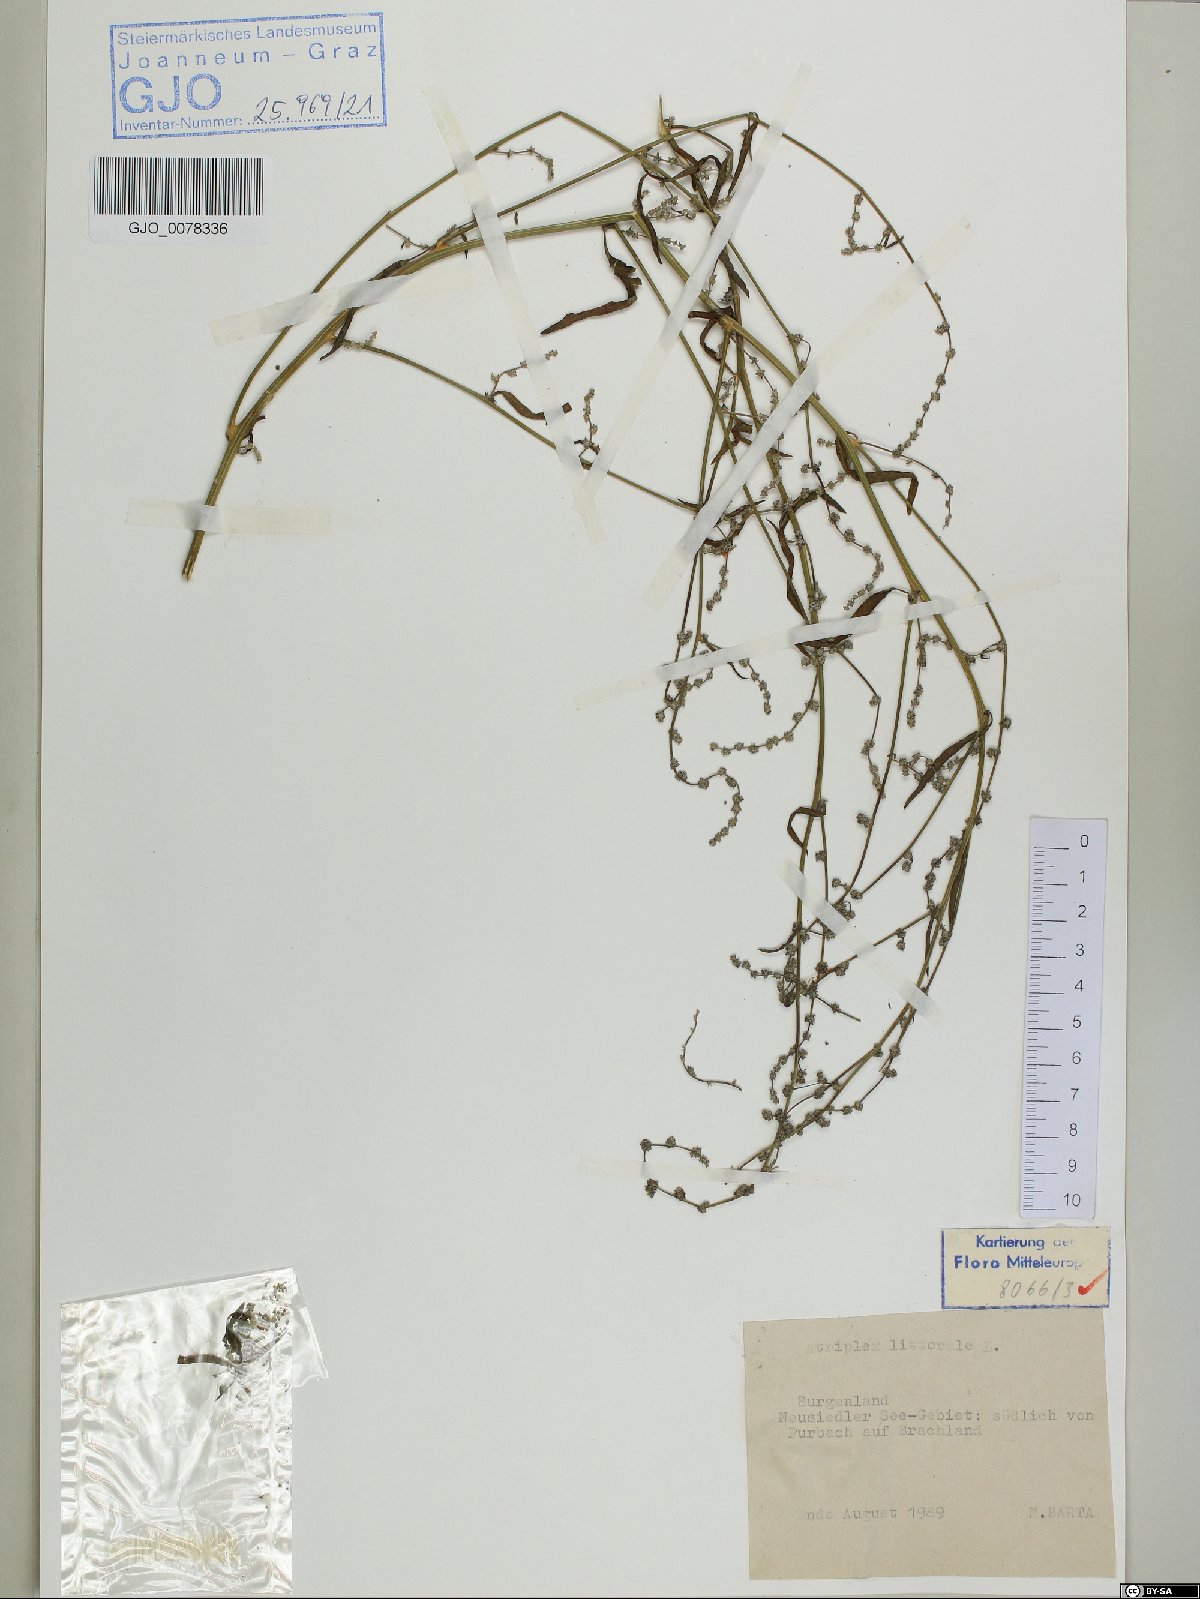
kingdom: Plantae
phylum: Tracheophyta
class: Magnoliopsida
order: Caryophyllales
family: Amaranthaceae
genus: Atriplex
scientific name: Atriplex littoralis
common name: Grass-leaved orache
